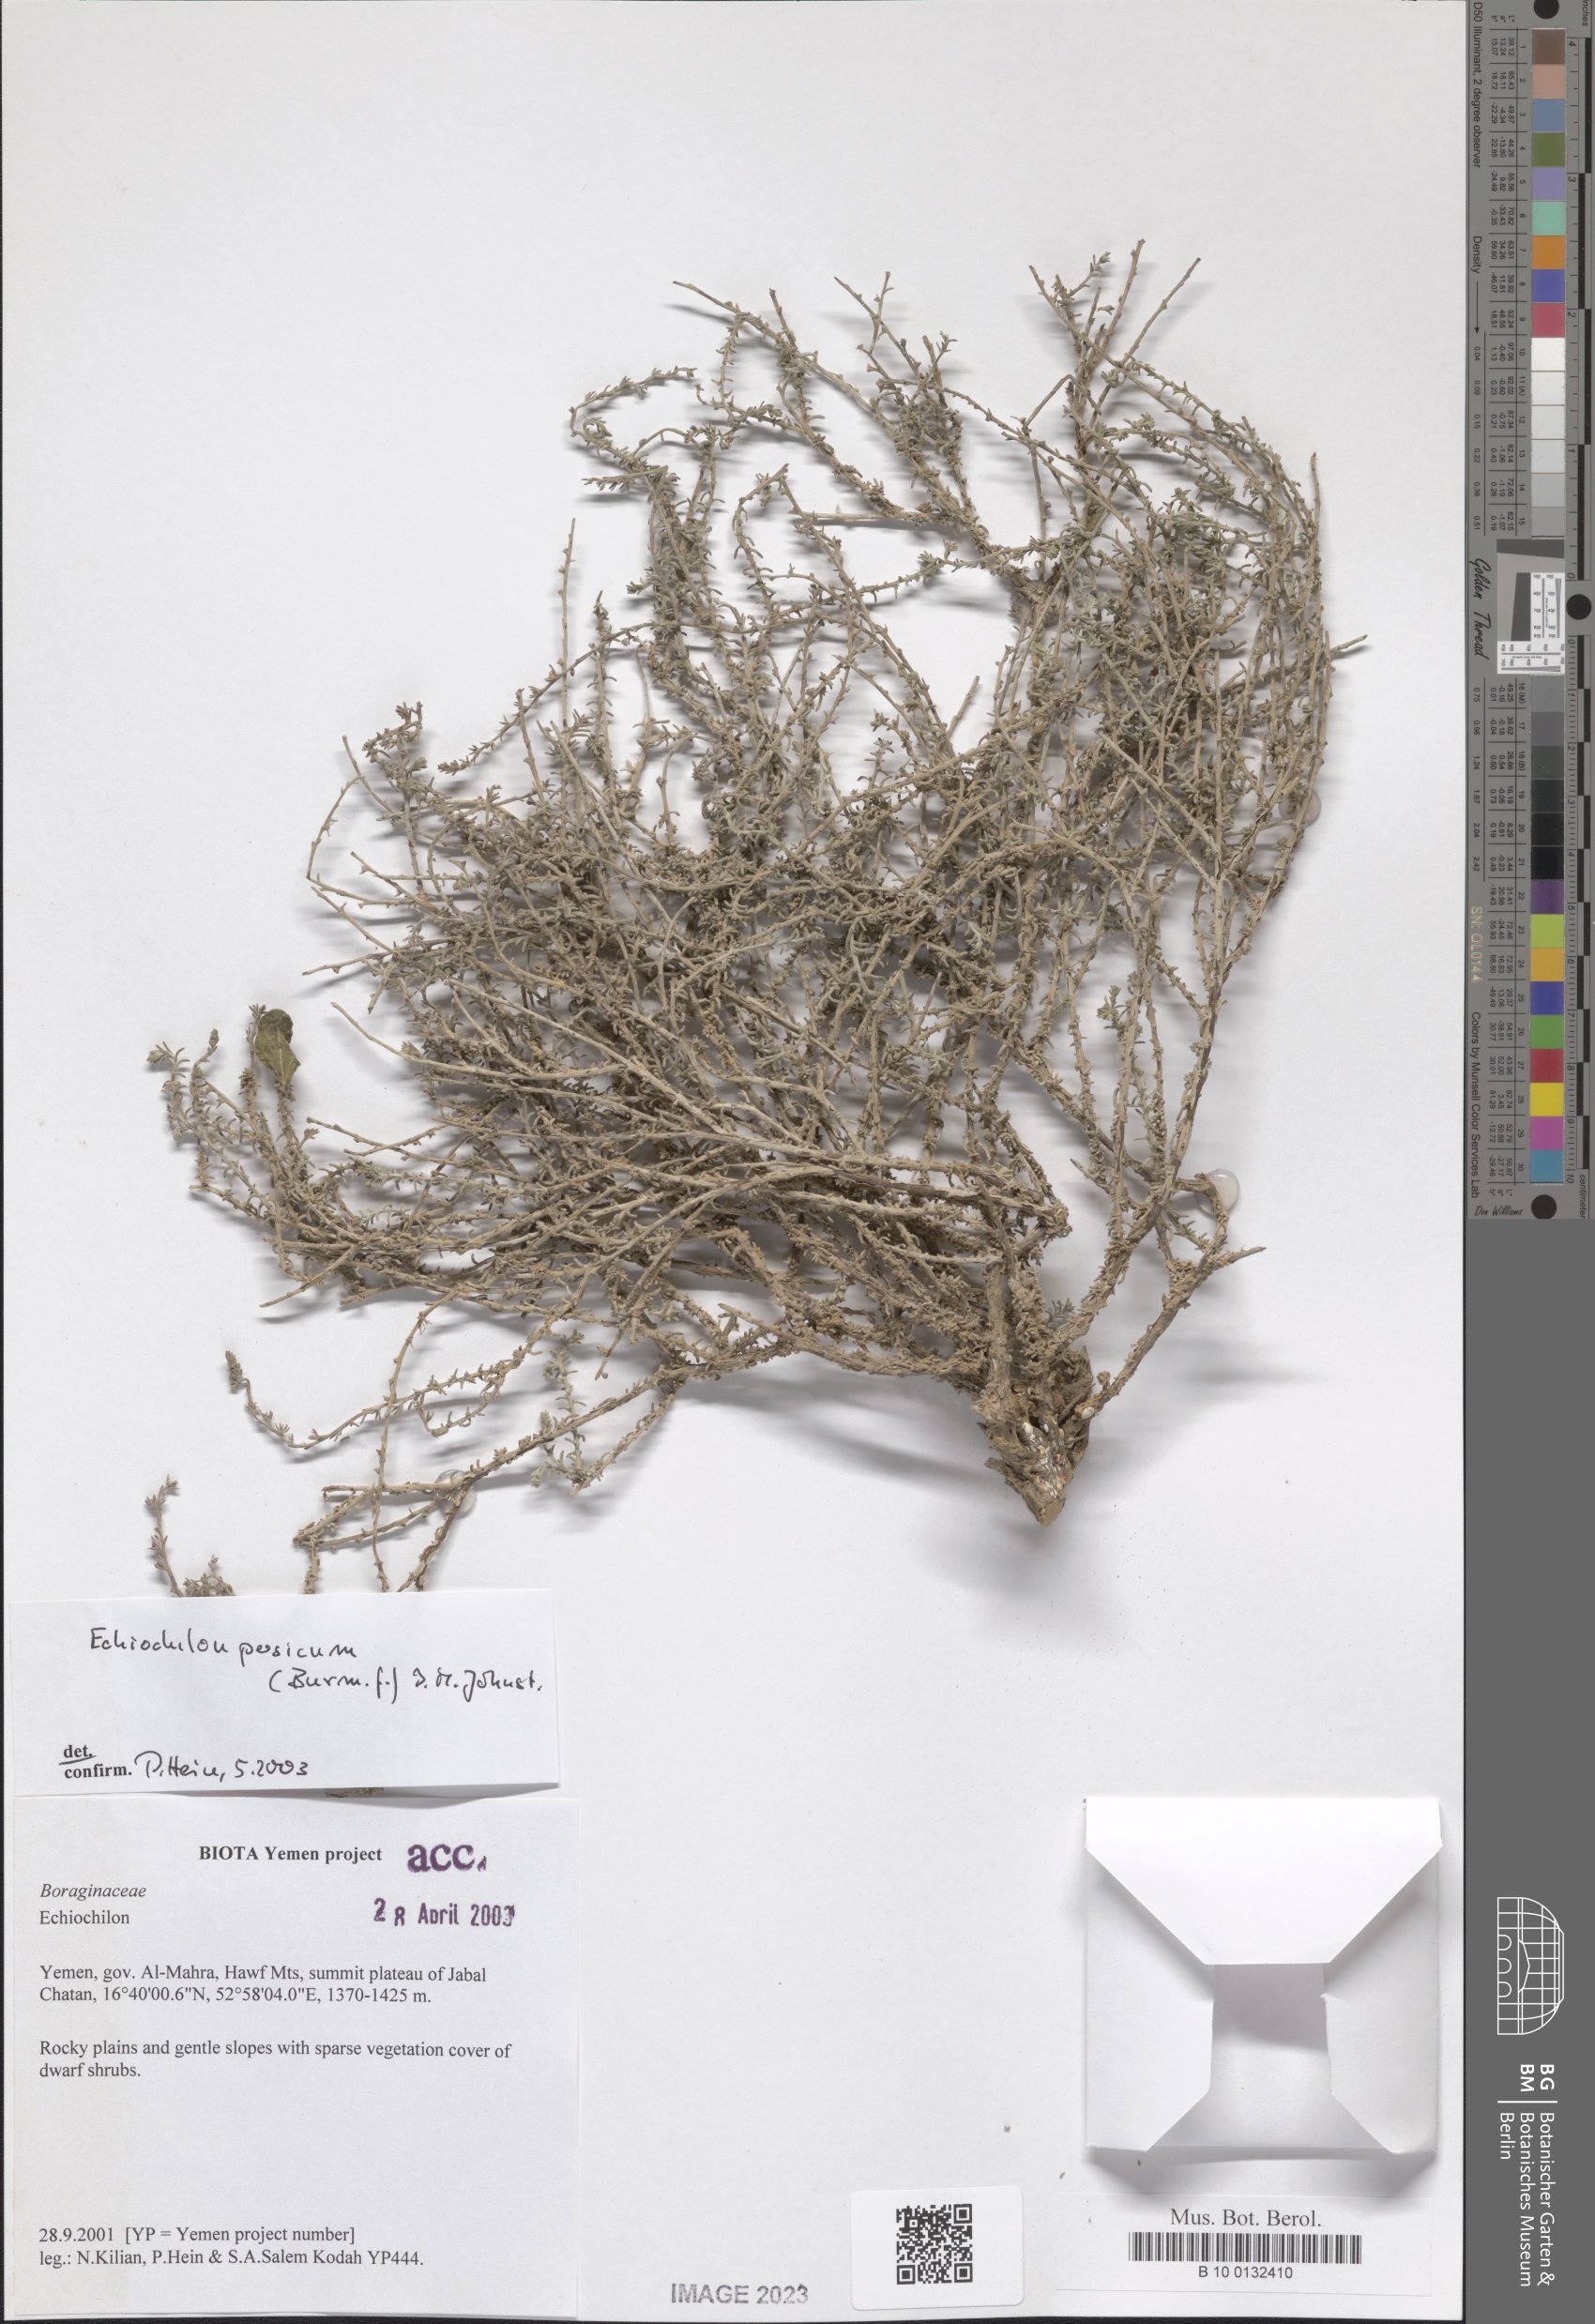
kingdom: Plantae
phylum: Tracheophyta
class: Magnoliopsida
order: Boraginales
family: Boraginaceae
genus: Echiochilon
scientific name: Echiochilon persicum
